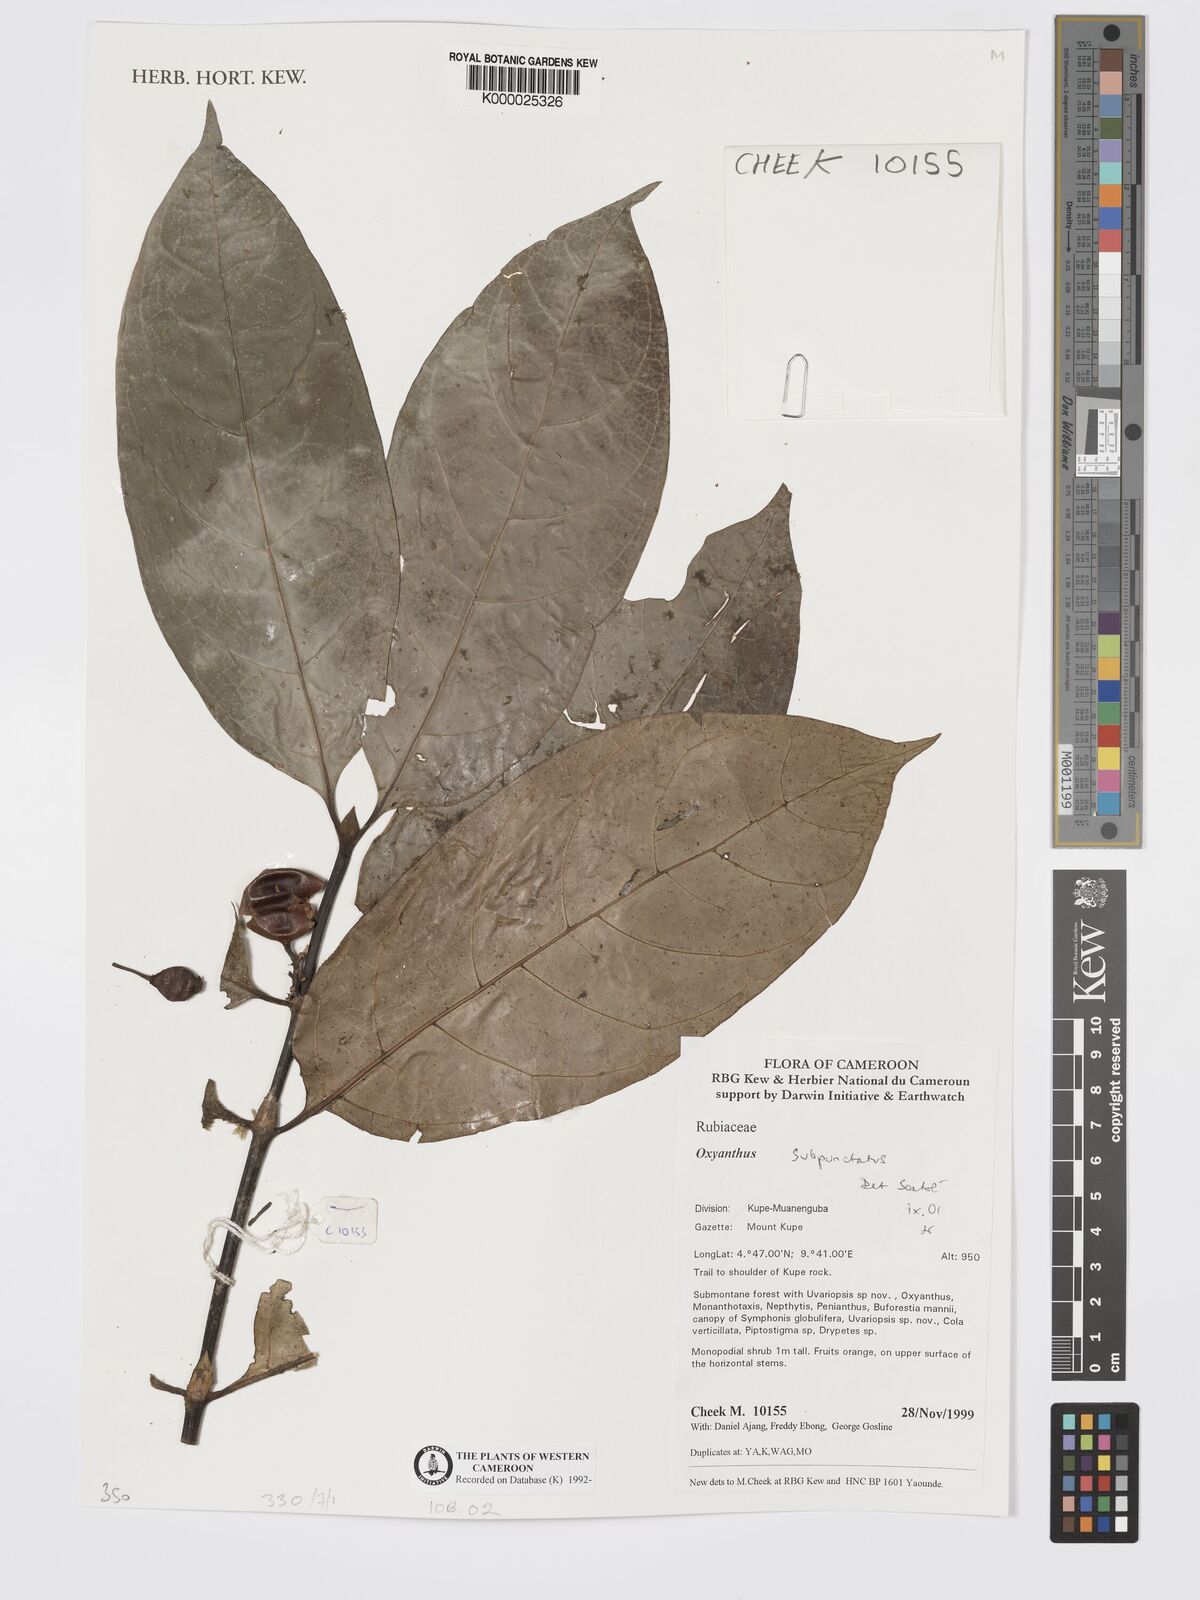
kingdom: Plantae
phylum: Tracheophyta
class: Magnoliopsida
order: Gentianales
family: Rubiaceae
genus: Oxyanthus
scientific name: Oxyanthus subpunctatus
